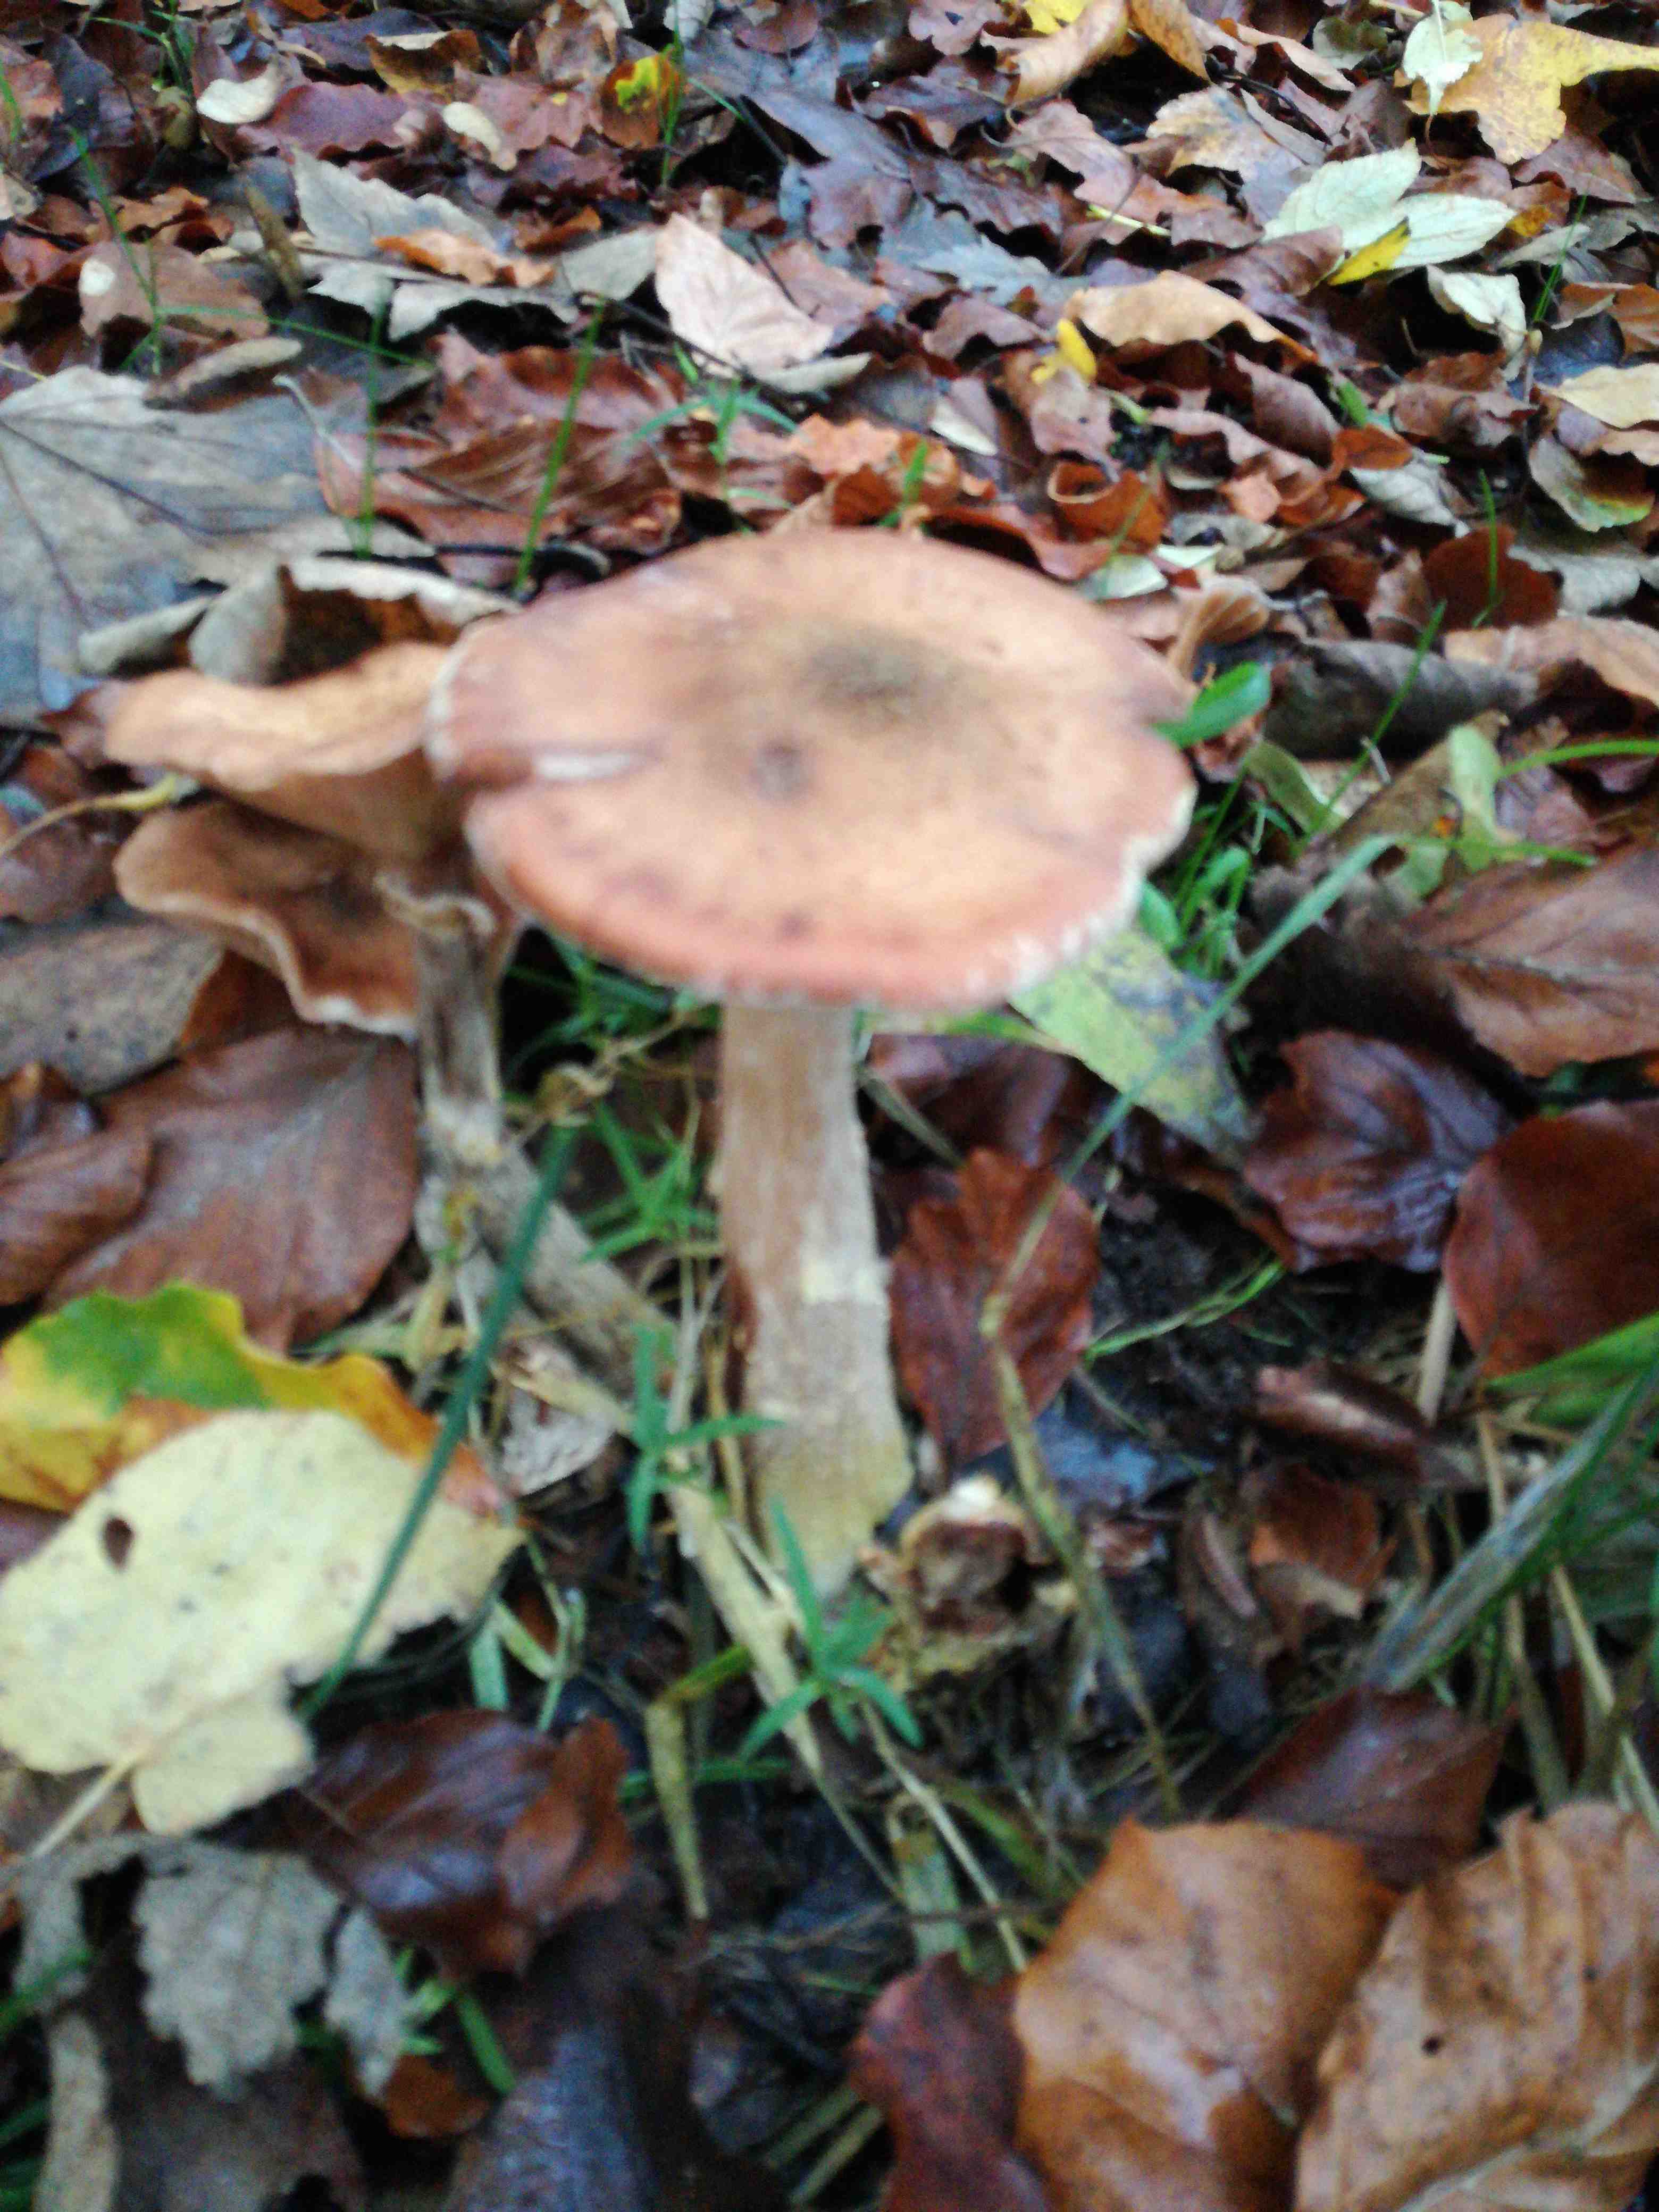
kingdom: Fungi
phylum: Basidiomycota
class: Agaricomycetes
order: Agaricales
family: Physalacriaceae
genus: Armillaria
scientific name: Armillaria lutea
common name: køllestokket honningsvamp
